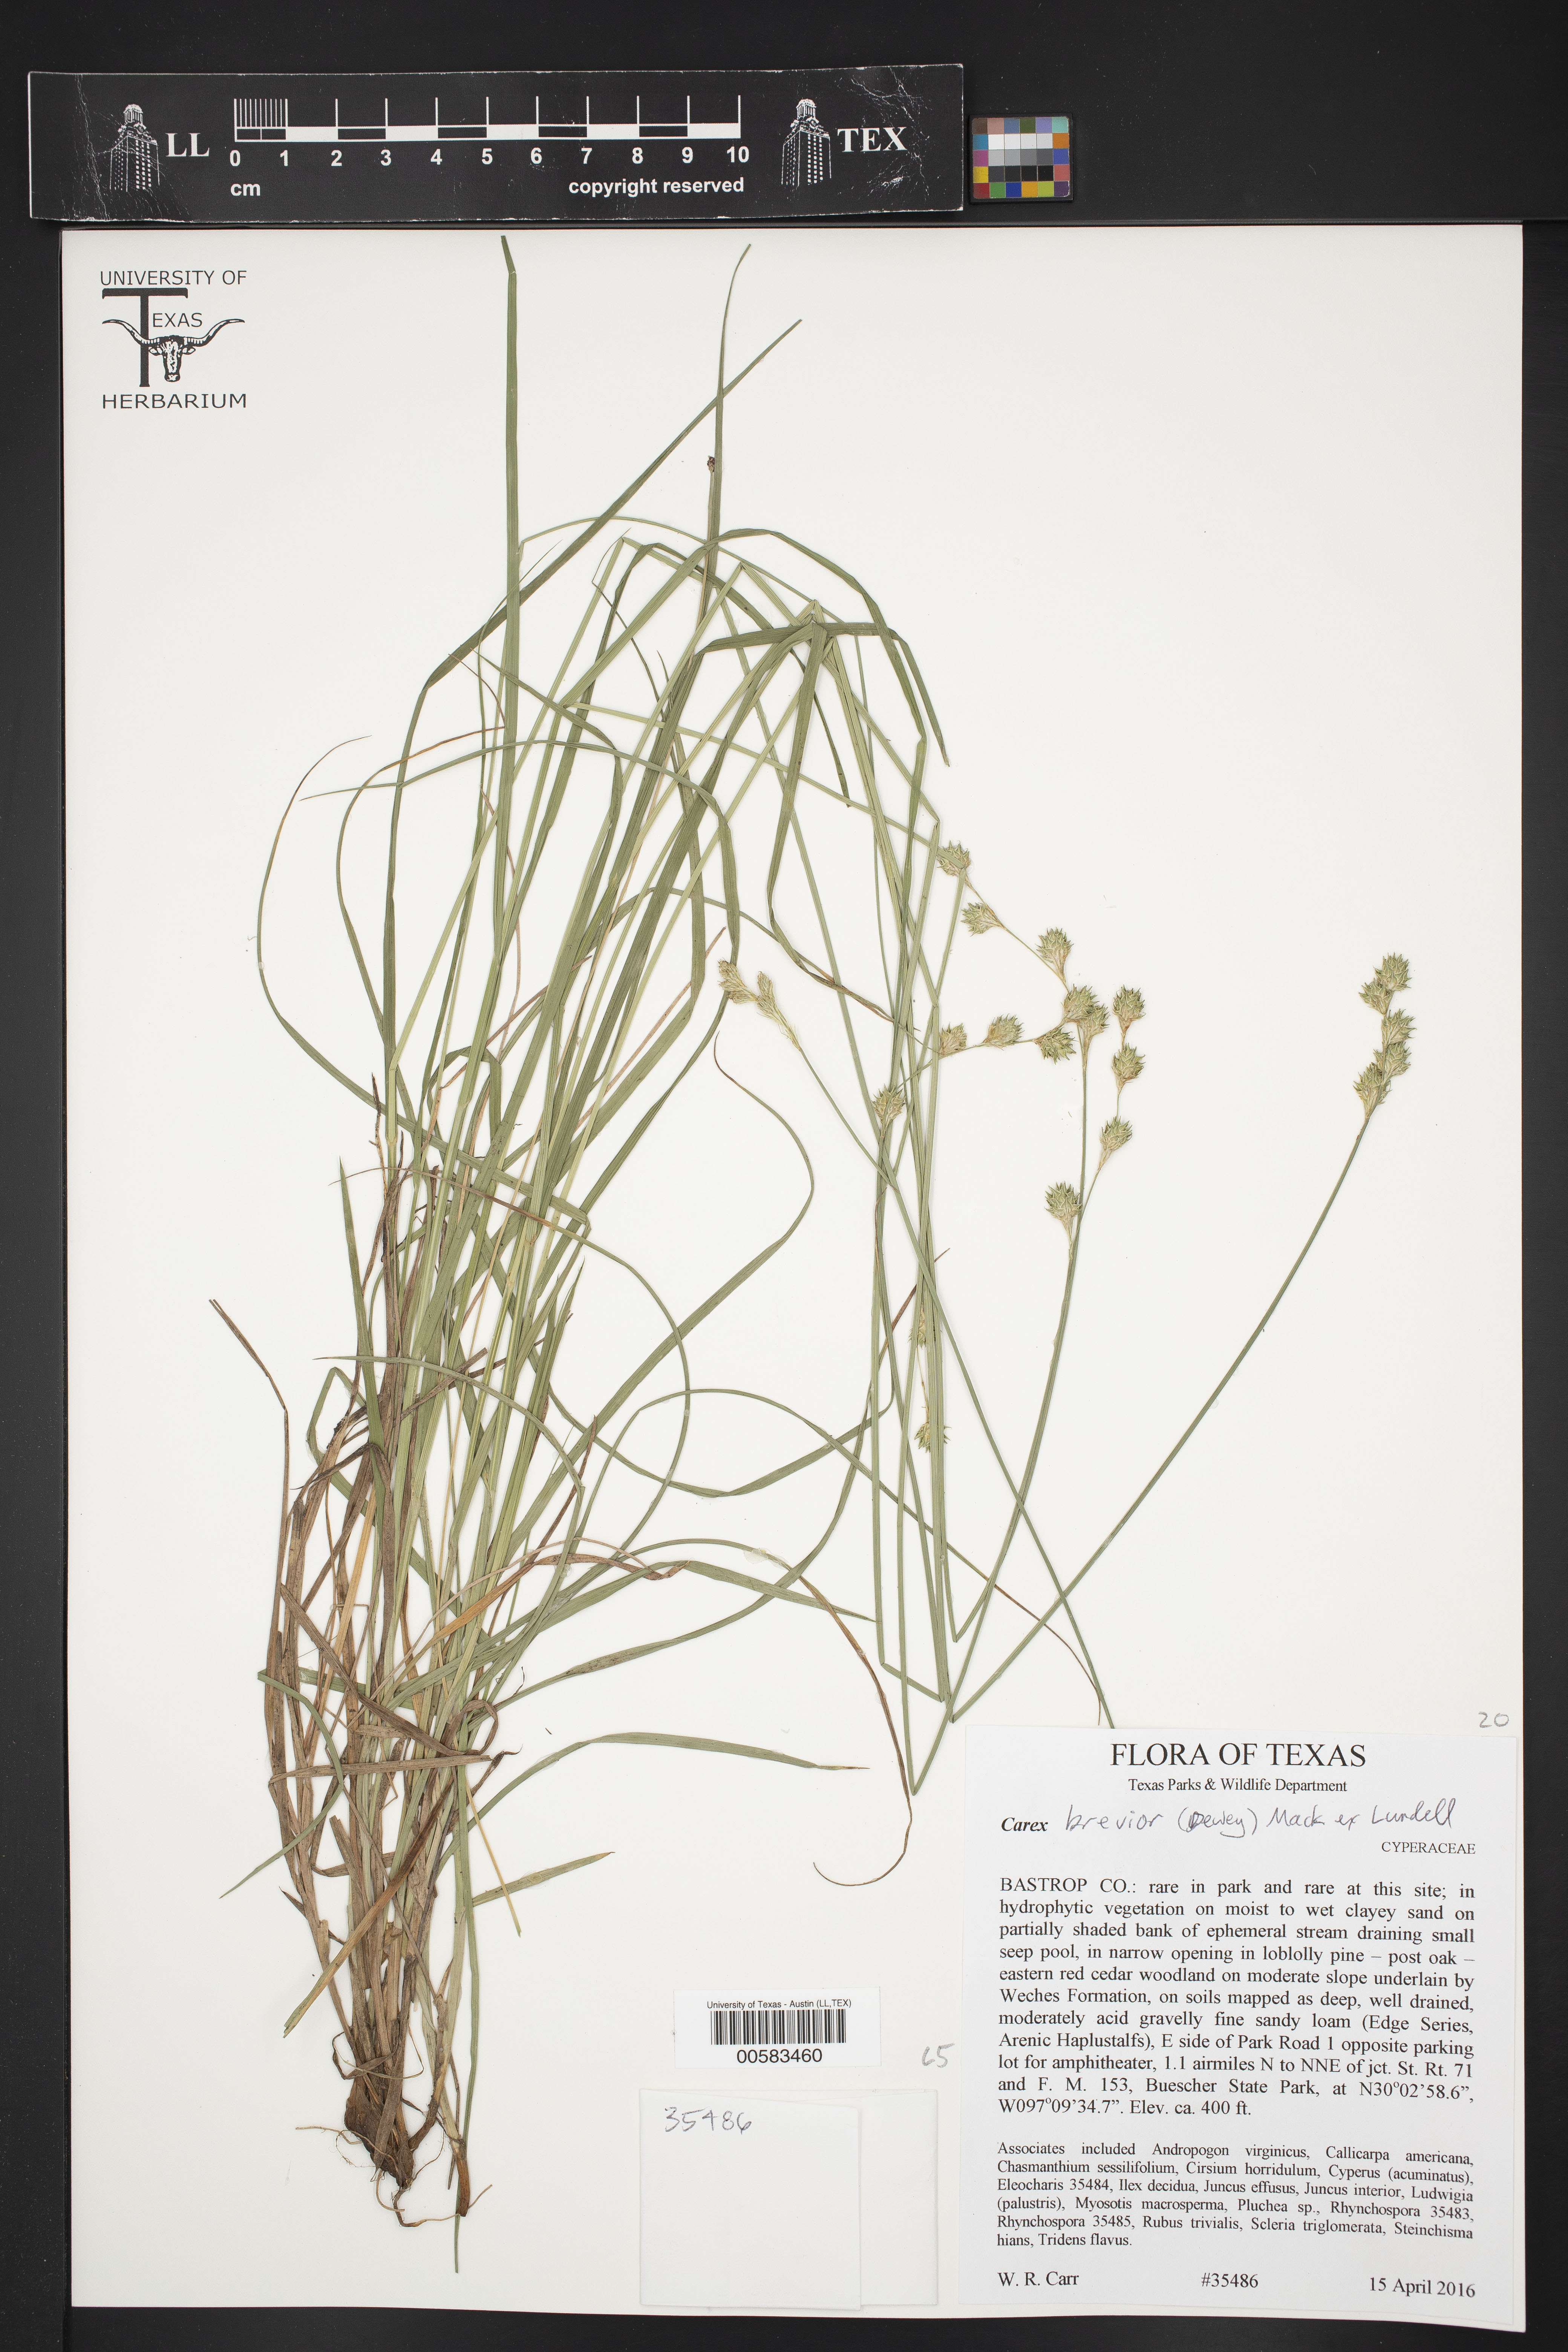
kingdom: Plantae
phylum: Tracheophyta
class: Liliopsida
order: Poales
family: Cyperaceae
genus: Carex
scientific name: Carex brevior
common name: Brevior sedge
